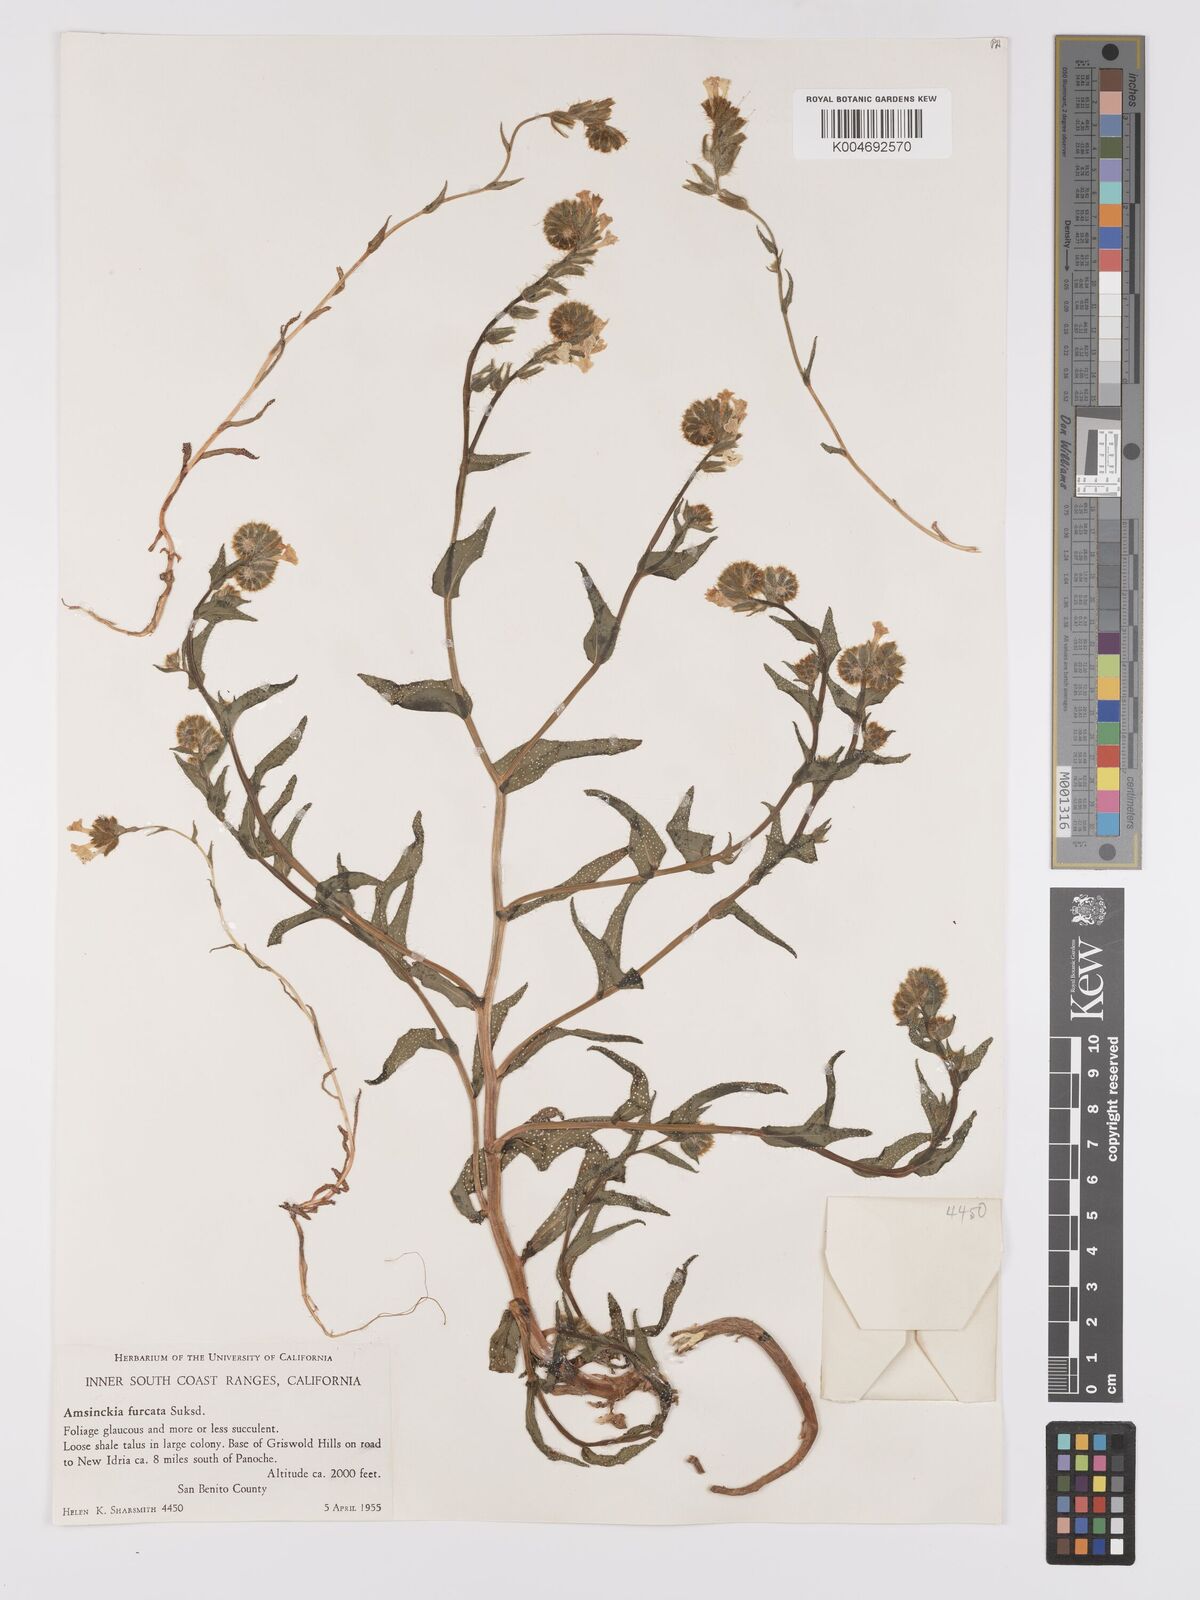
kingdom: Plantae
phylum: Tracheophyta
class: Magnoliopsida
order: Boraginales
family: Boraginaceae
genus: Amsinckia
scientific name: Amsinckia vernicosa
